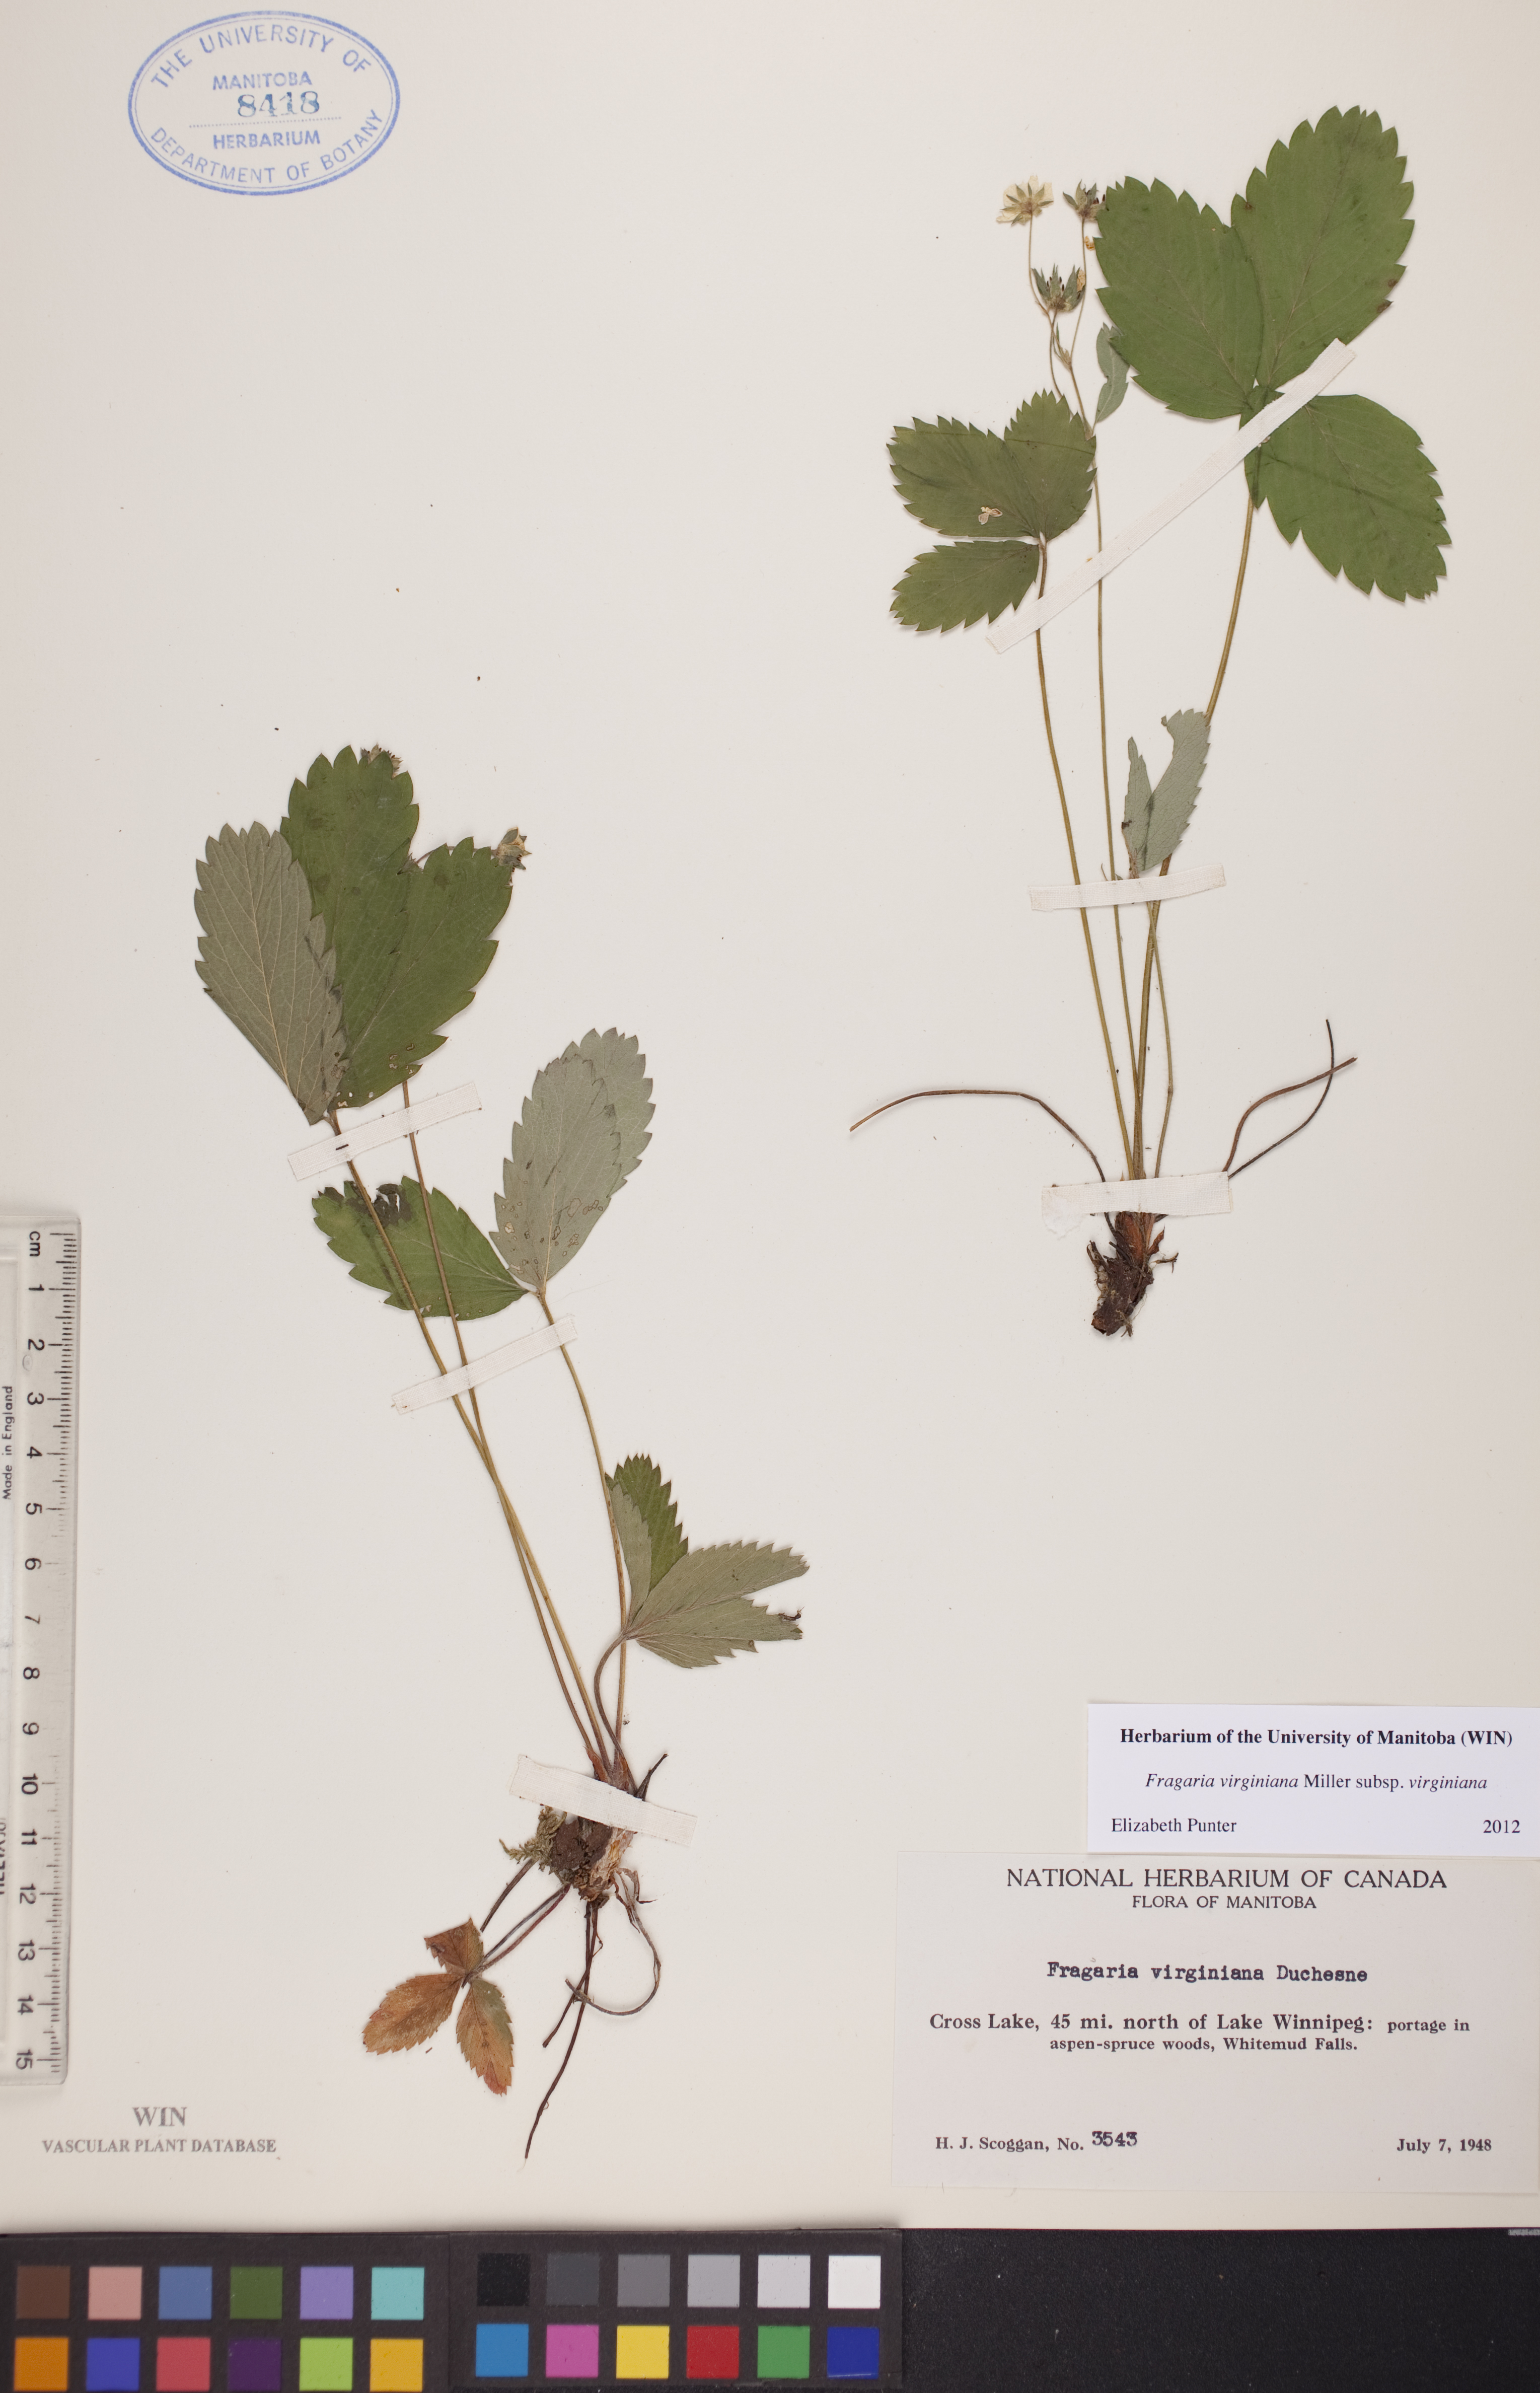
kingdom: Plantae
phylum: Tracheophyta
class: Magnoliopsida
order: Rosales
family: Rosaceae
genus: Fragaria
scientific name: Fragaria virginiana
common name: Thickleaved wild strawberry
